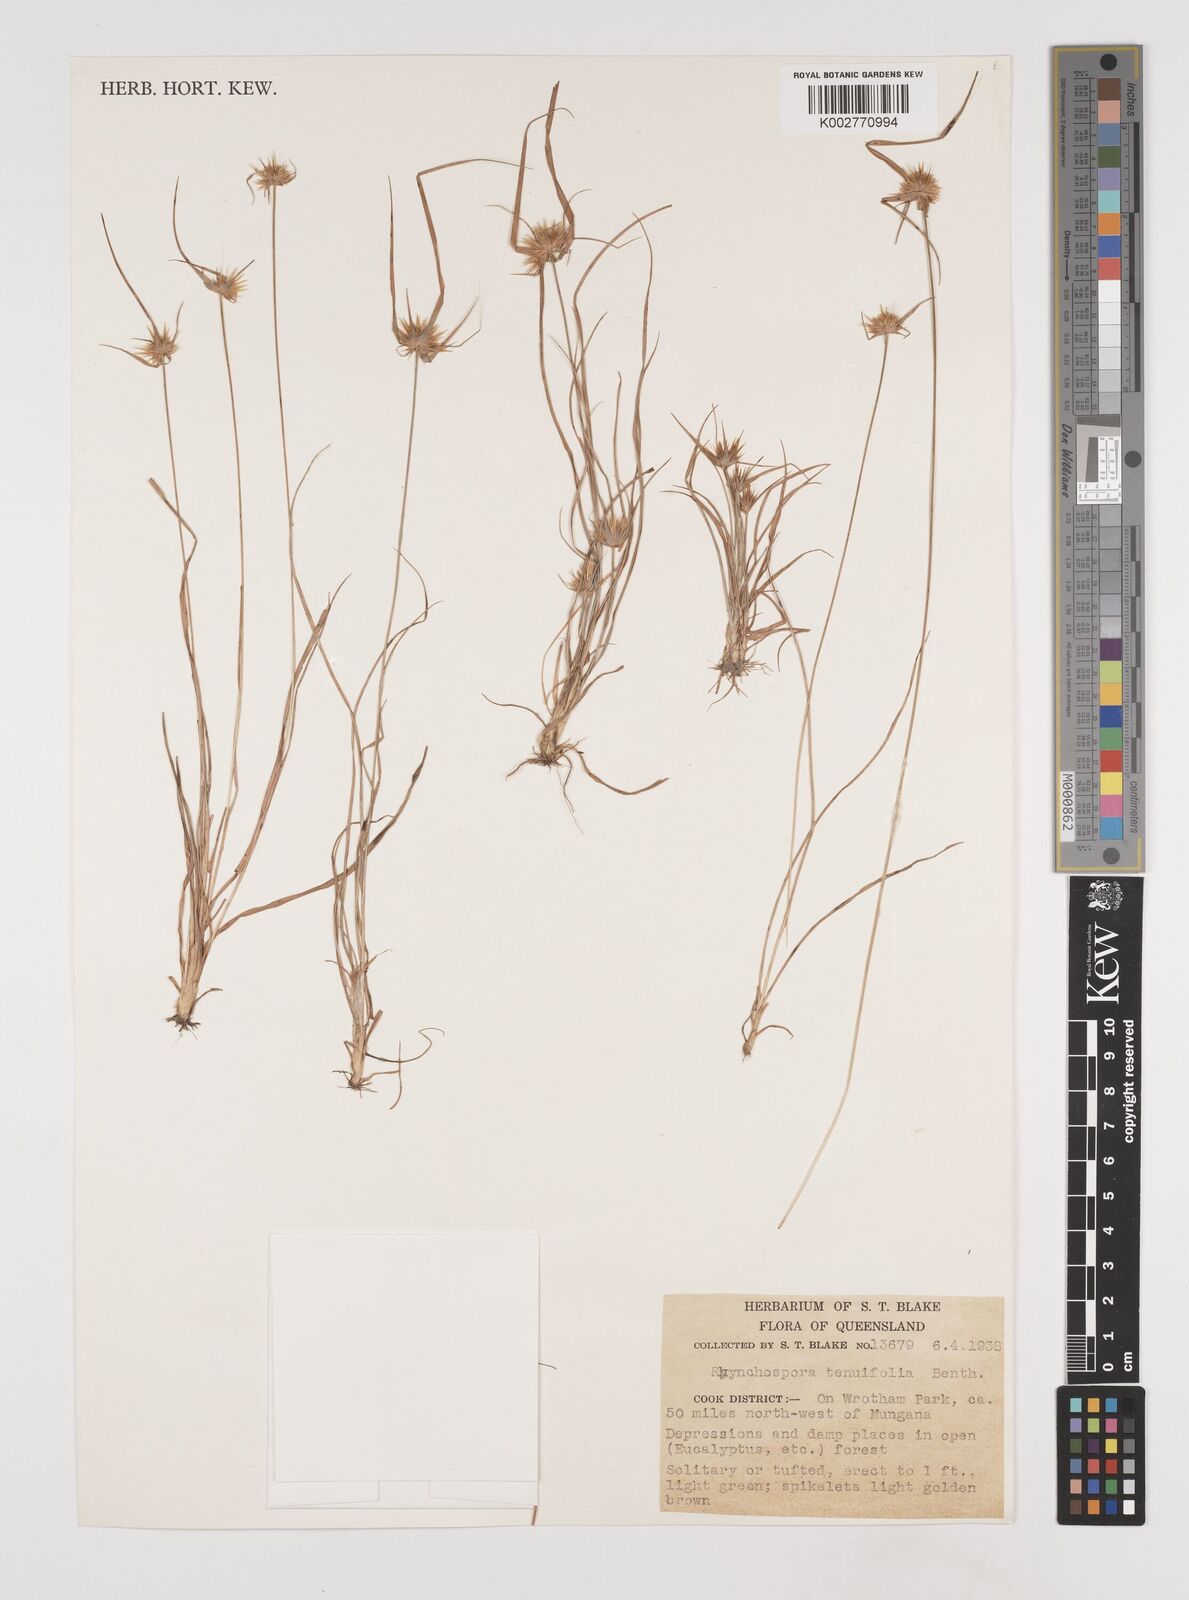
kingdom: Plantae
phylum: Tracheophyta
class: Liliopsida
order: Poales
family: Cyperaceae
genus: Rhynchospora
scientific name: Rhynchospora subtenuifolia
